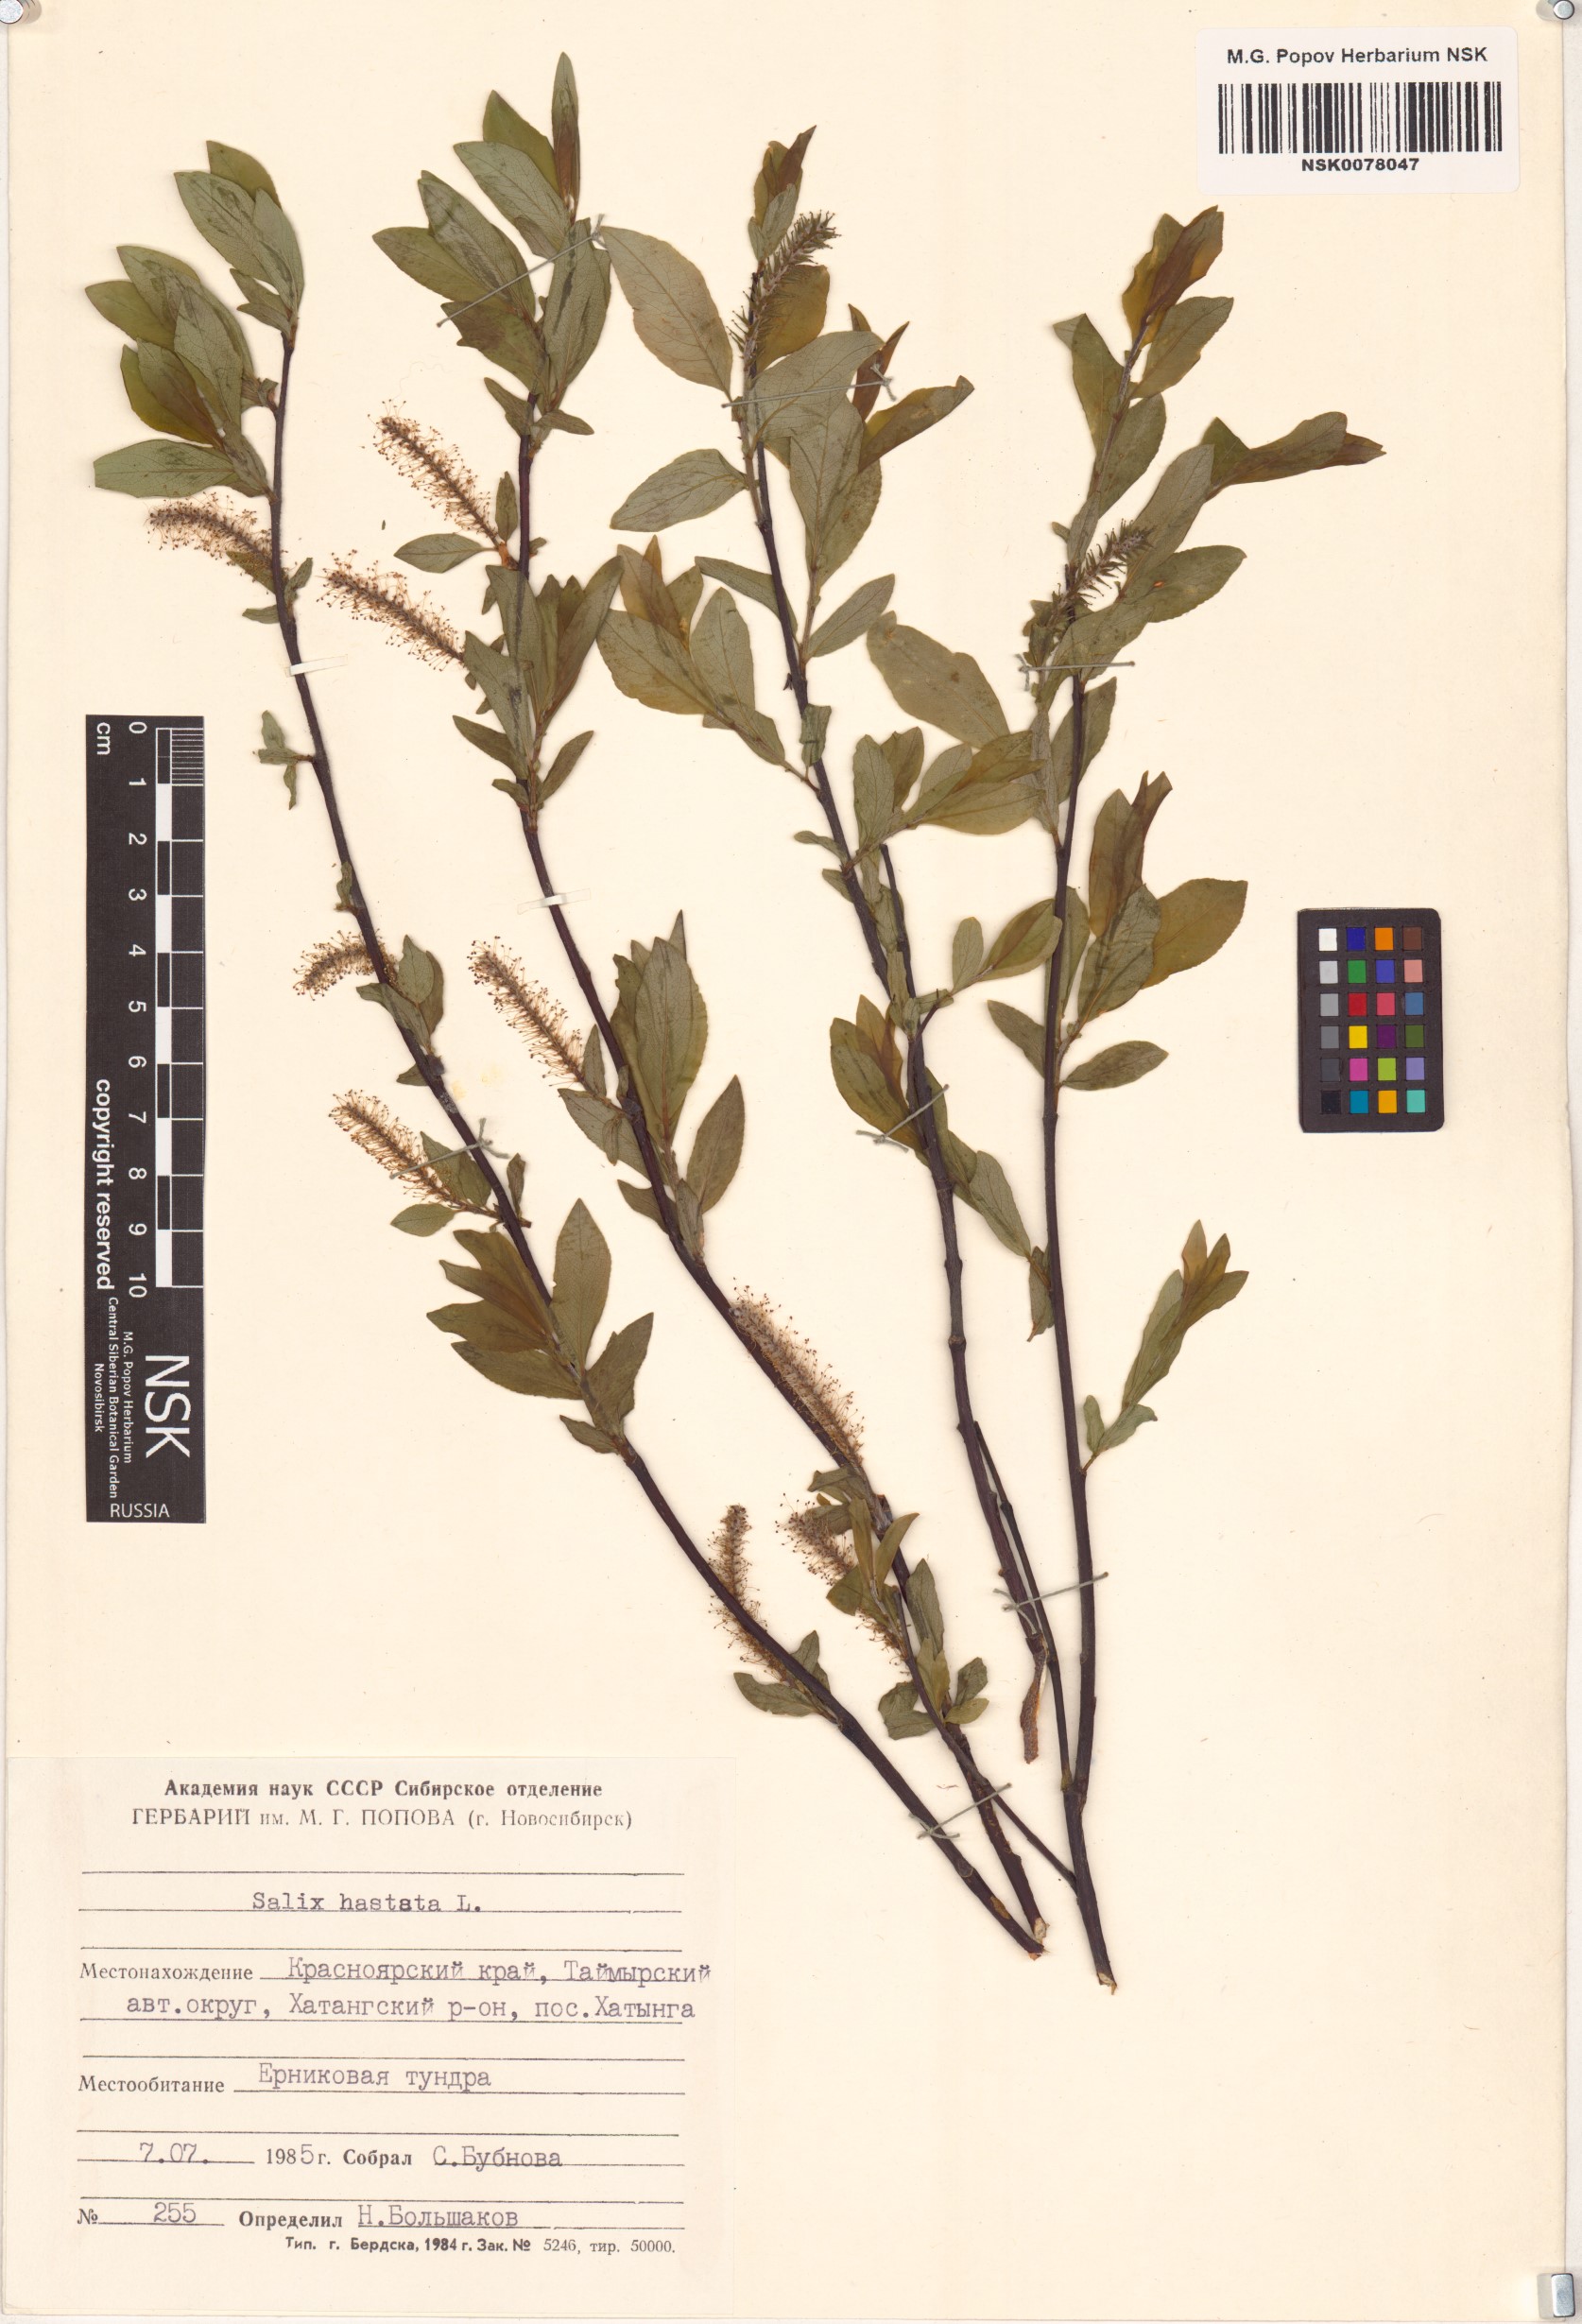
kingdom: Plantae
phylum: Tracheophyta
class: Magnoliopsida
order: Malpighiales
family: Salicaceae
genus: Salix
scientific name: Salix hastata
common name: Halberd willow
